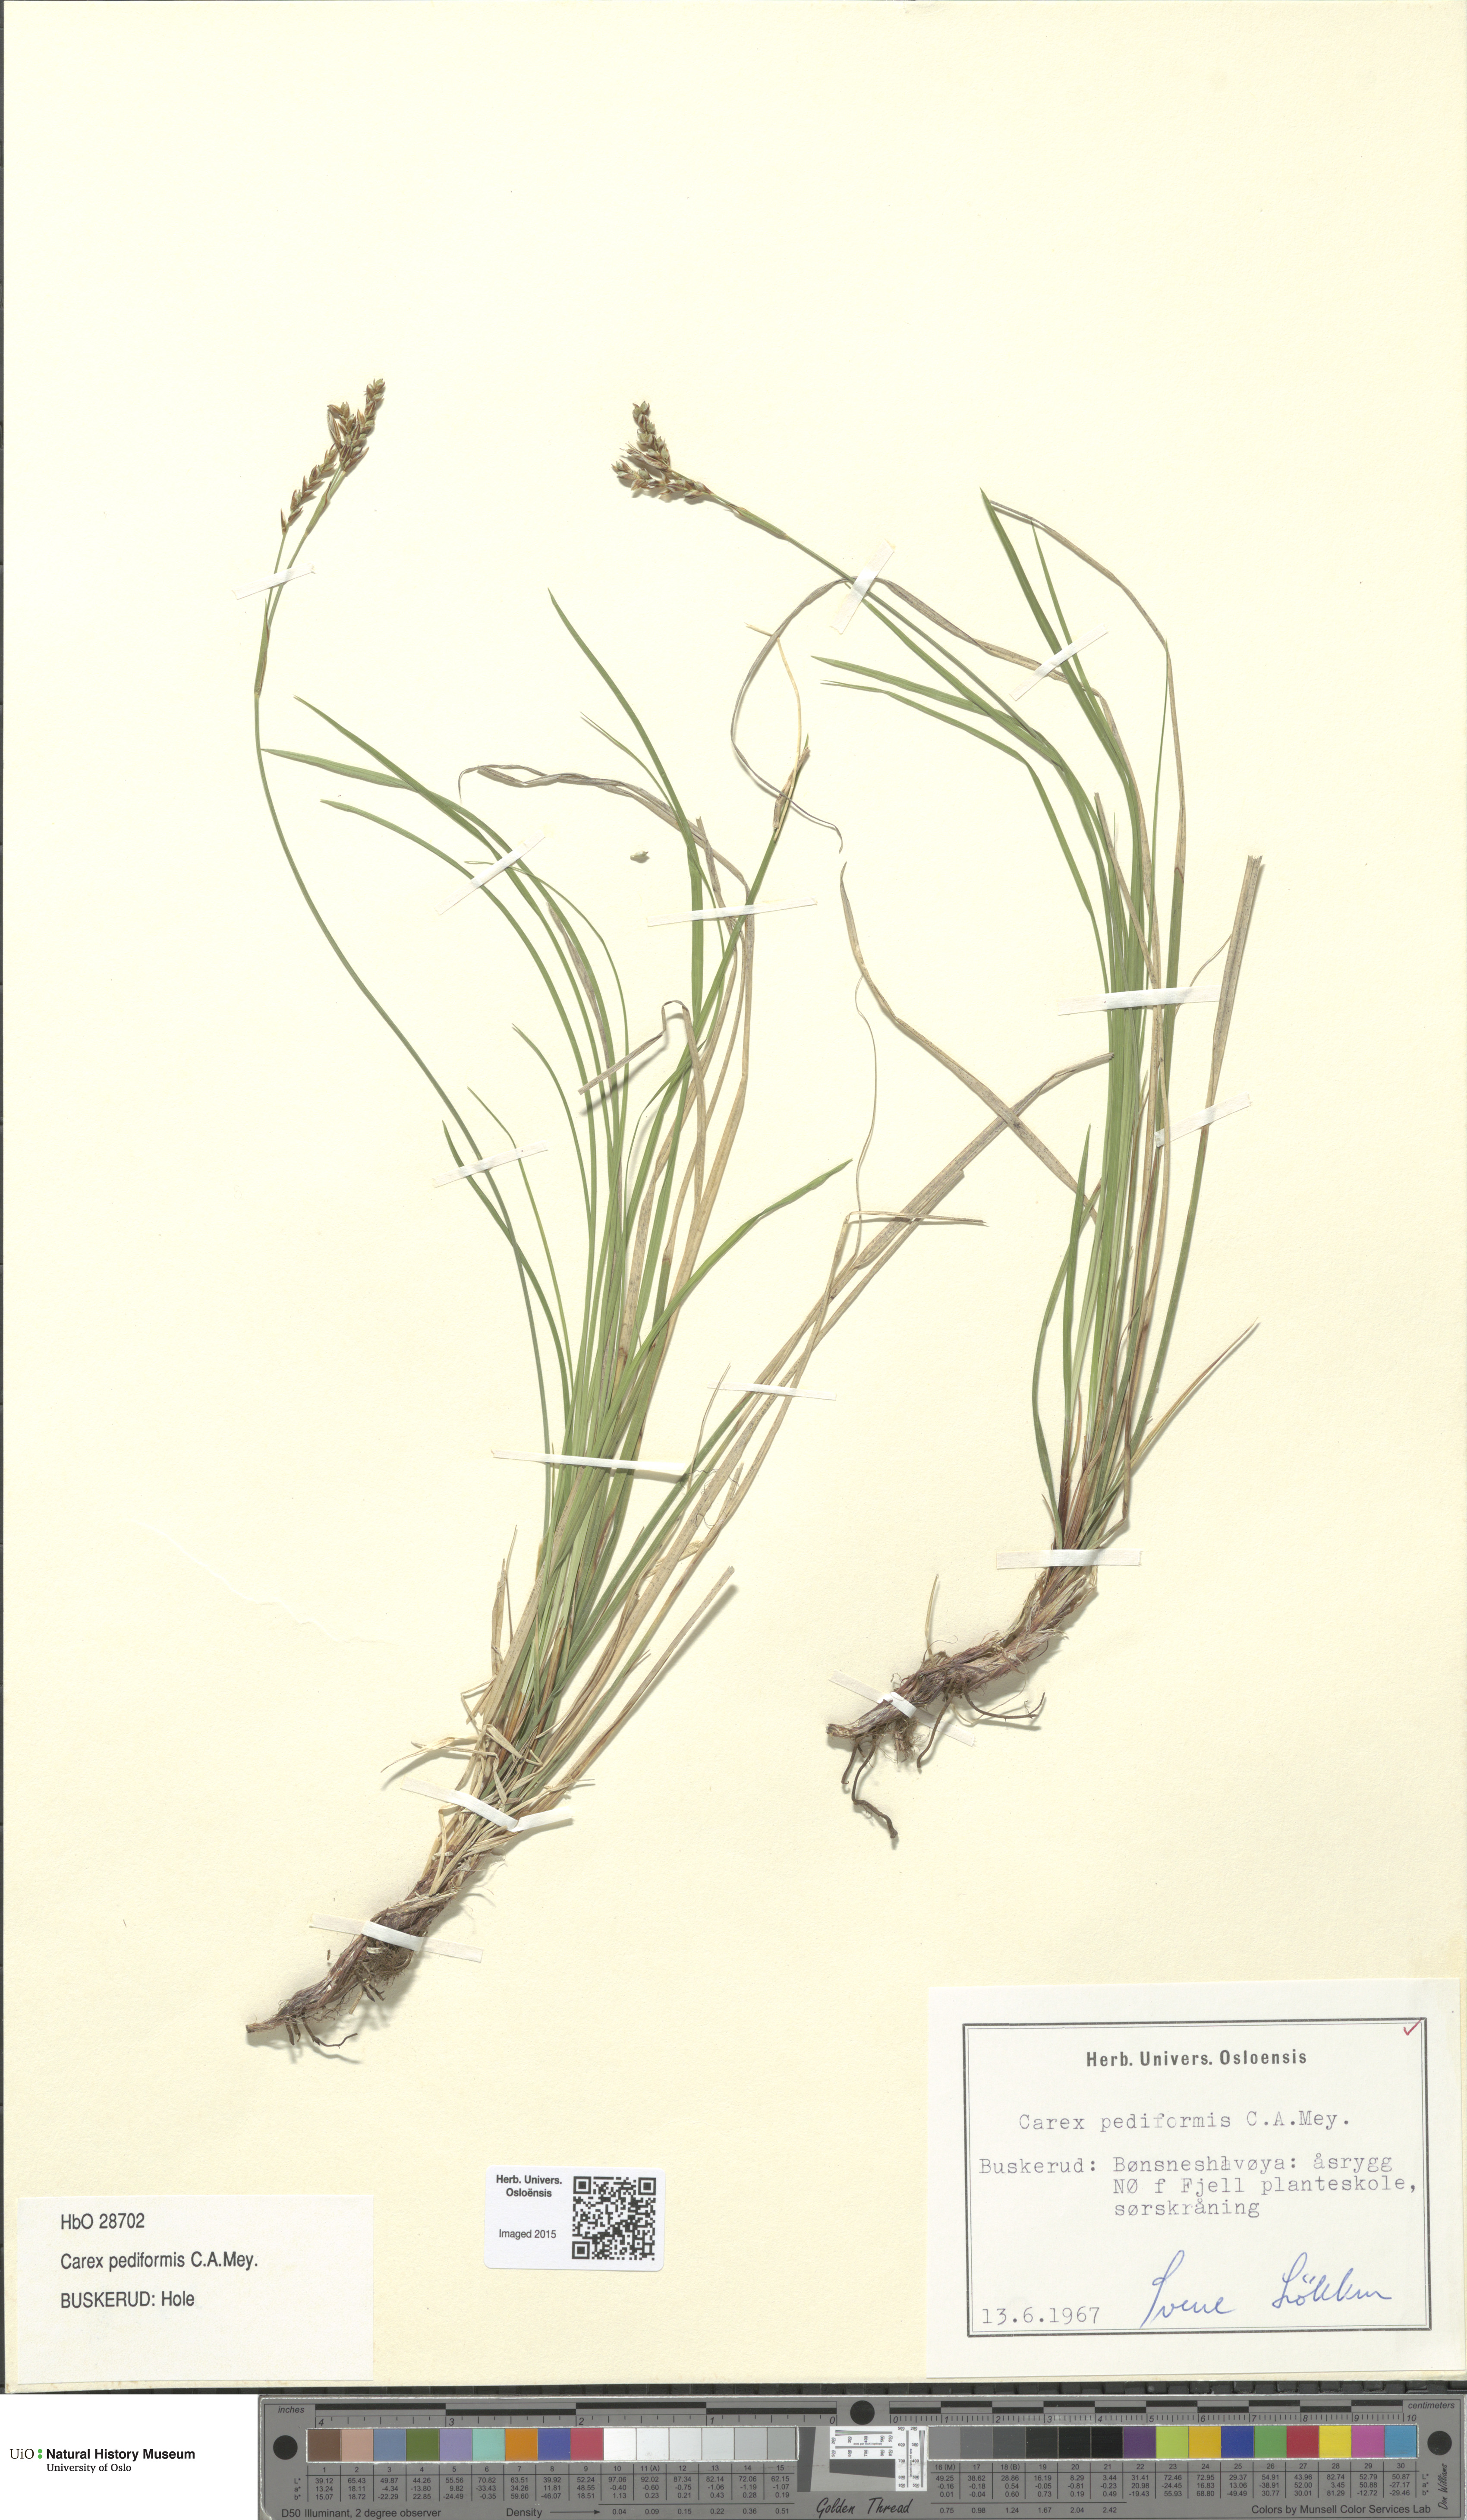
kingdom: Plantae
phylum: Tracheophyta
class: Liliopsida
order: Poales
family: Cyperaceae
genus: Carex
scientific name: Carex rhizina
